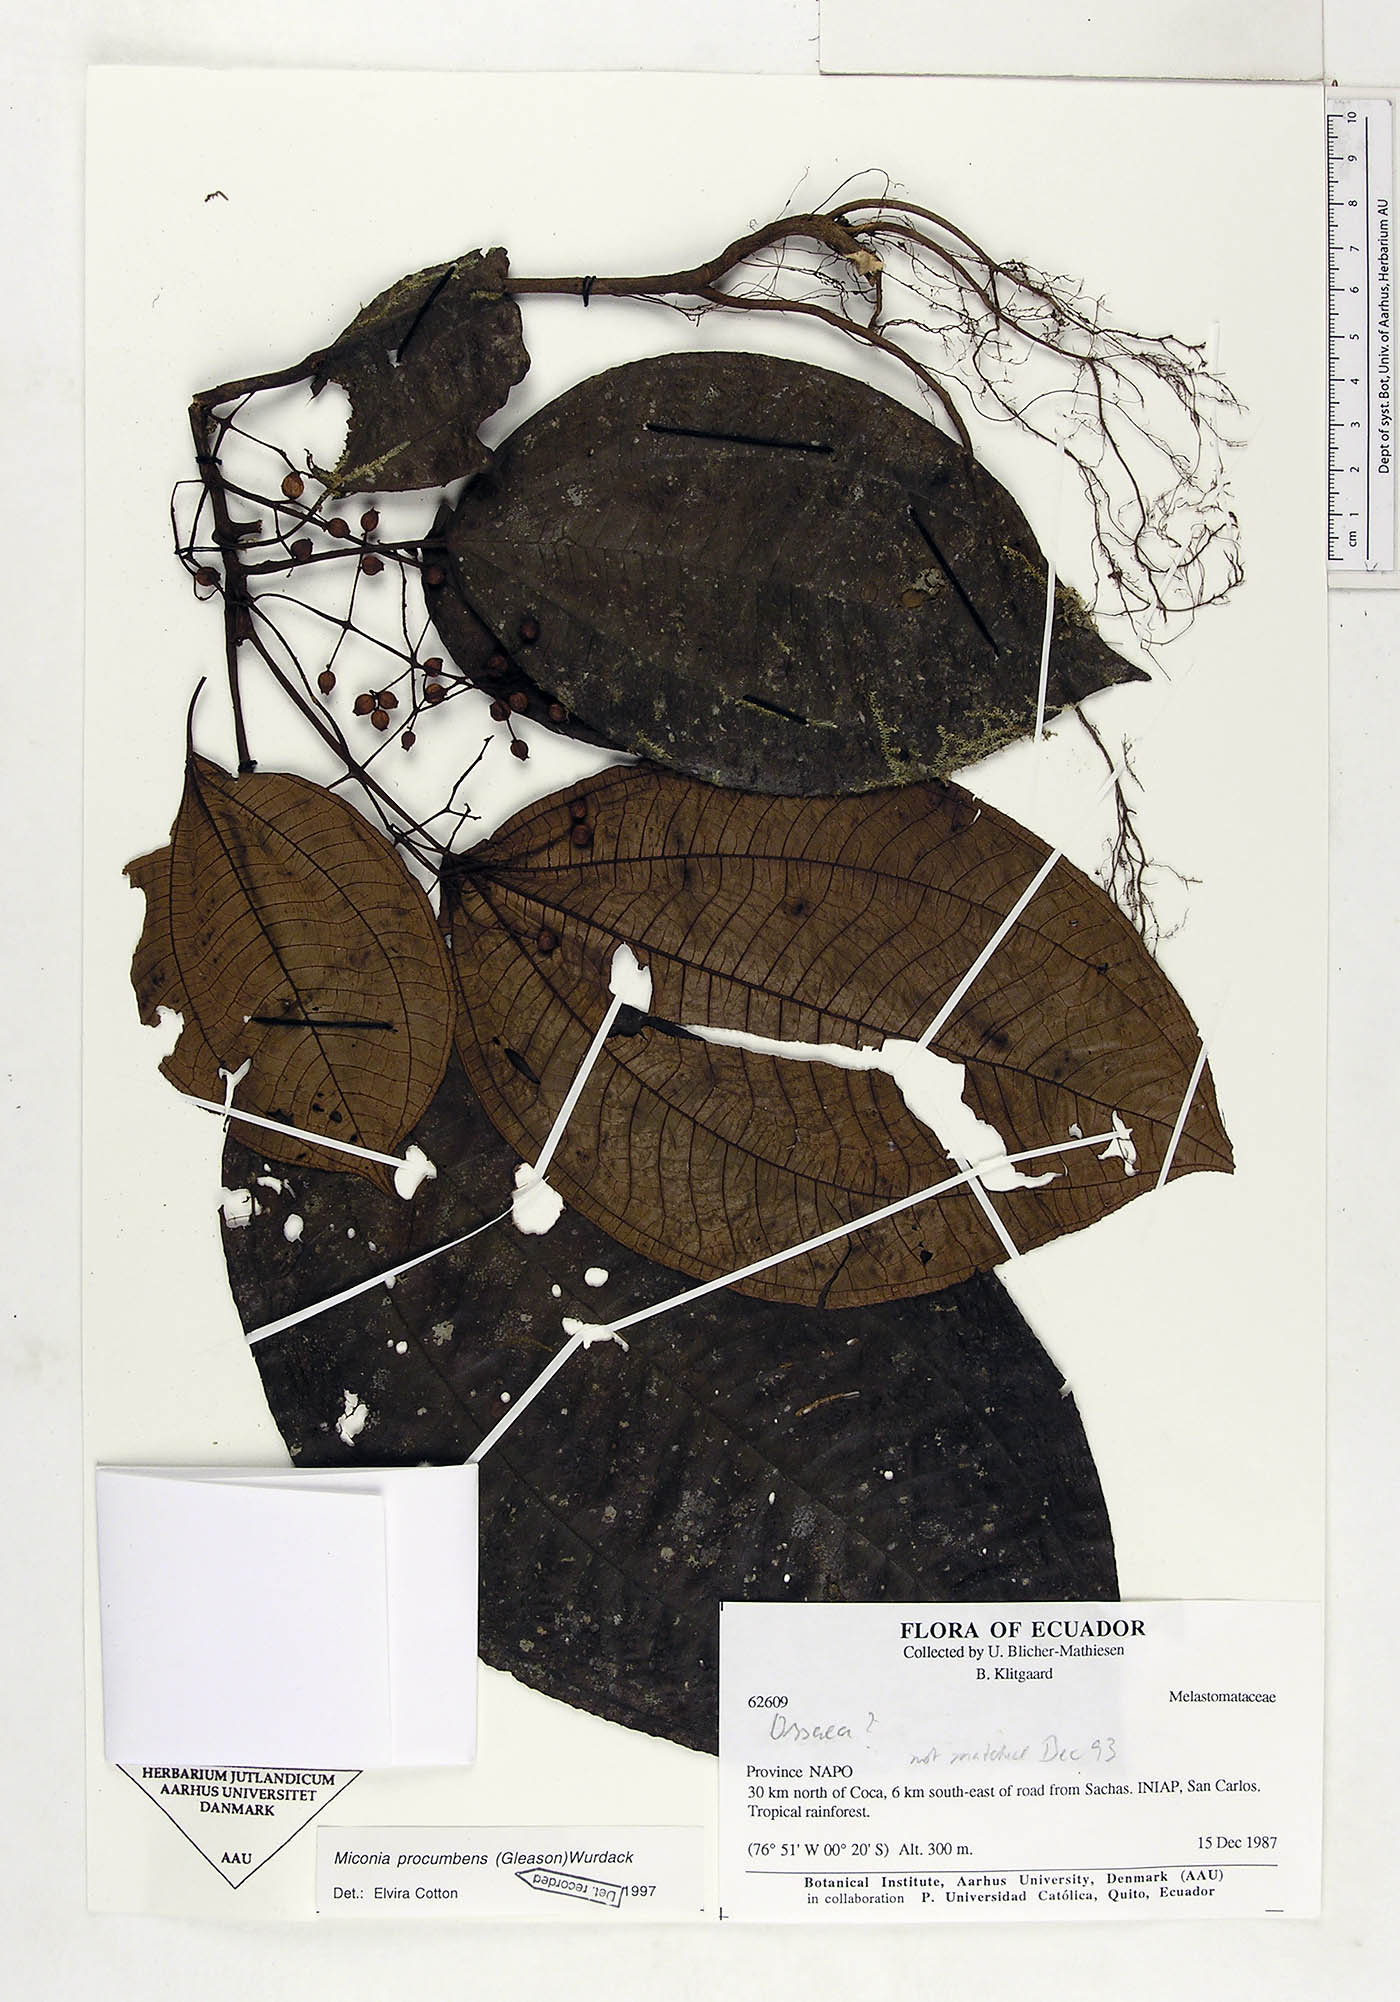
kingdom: Plantae
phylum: Tracheophyta
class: Magnoliopsida
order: Myrtales
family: Melastomataceae
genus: Miconia
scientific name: Miconia procumbens
